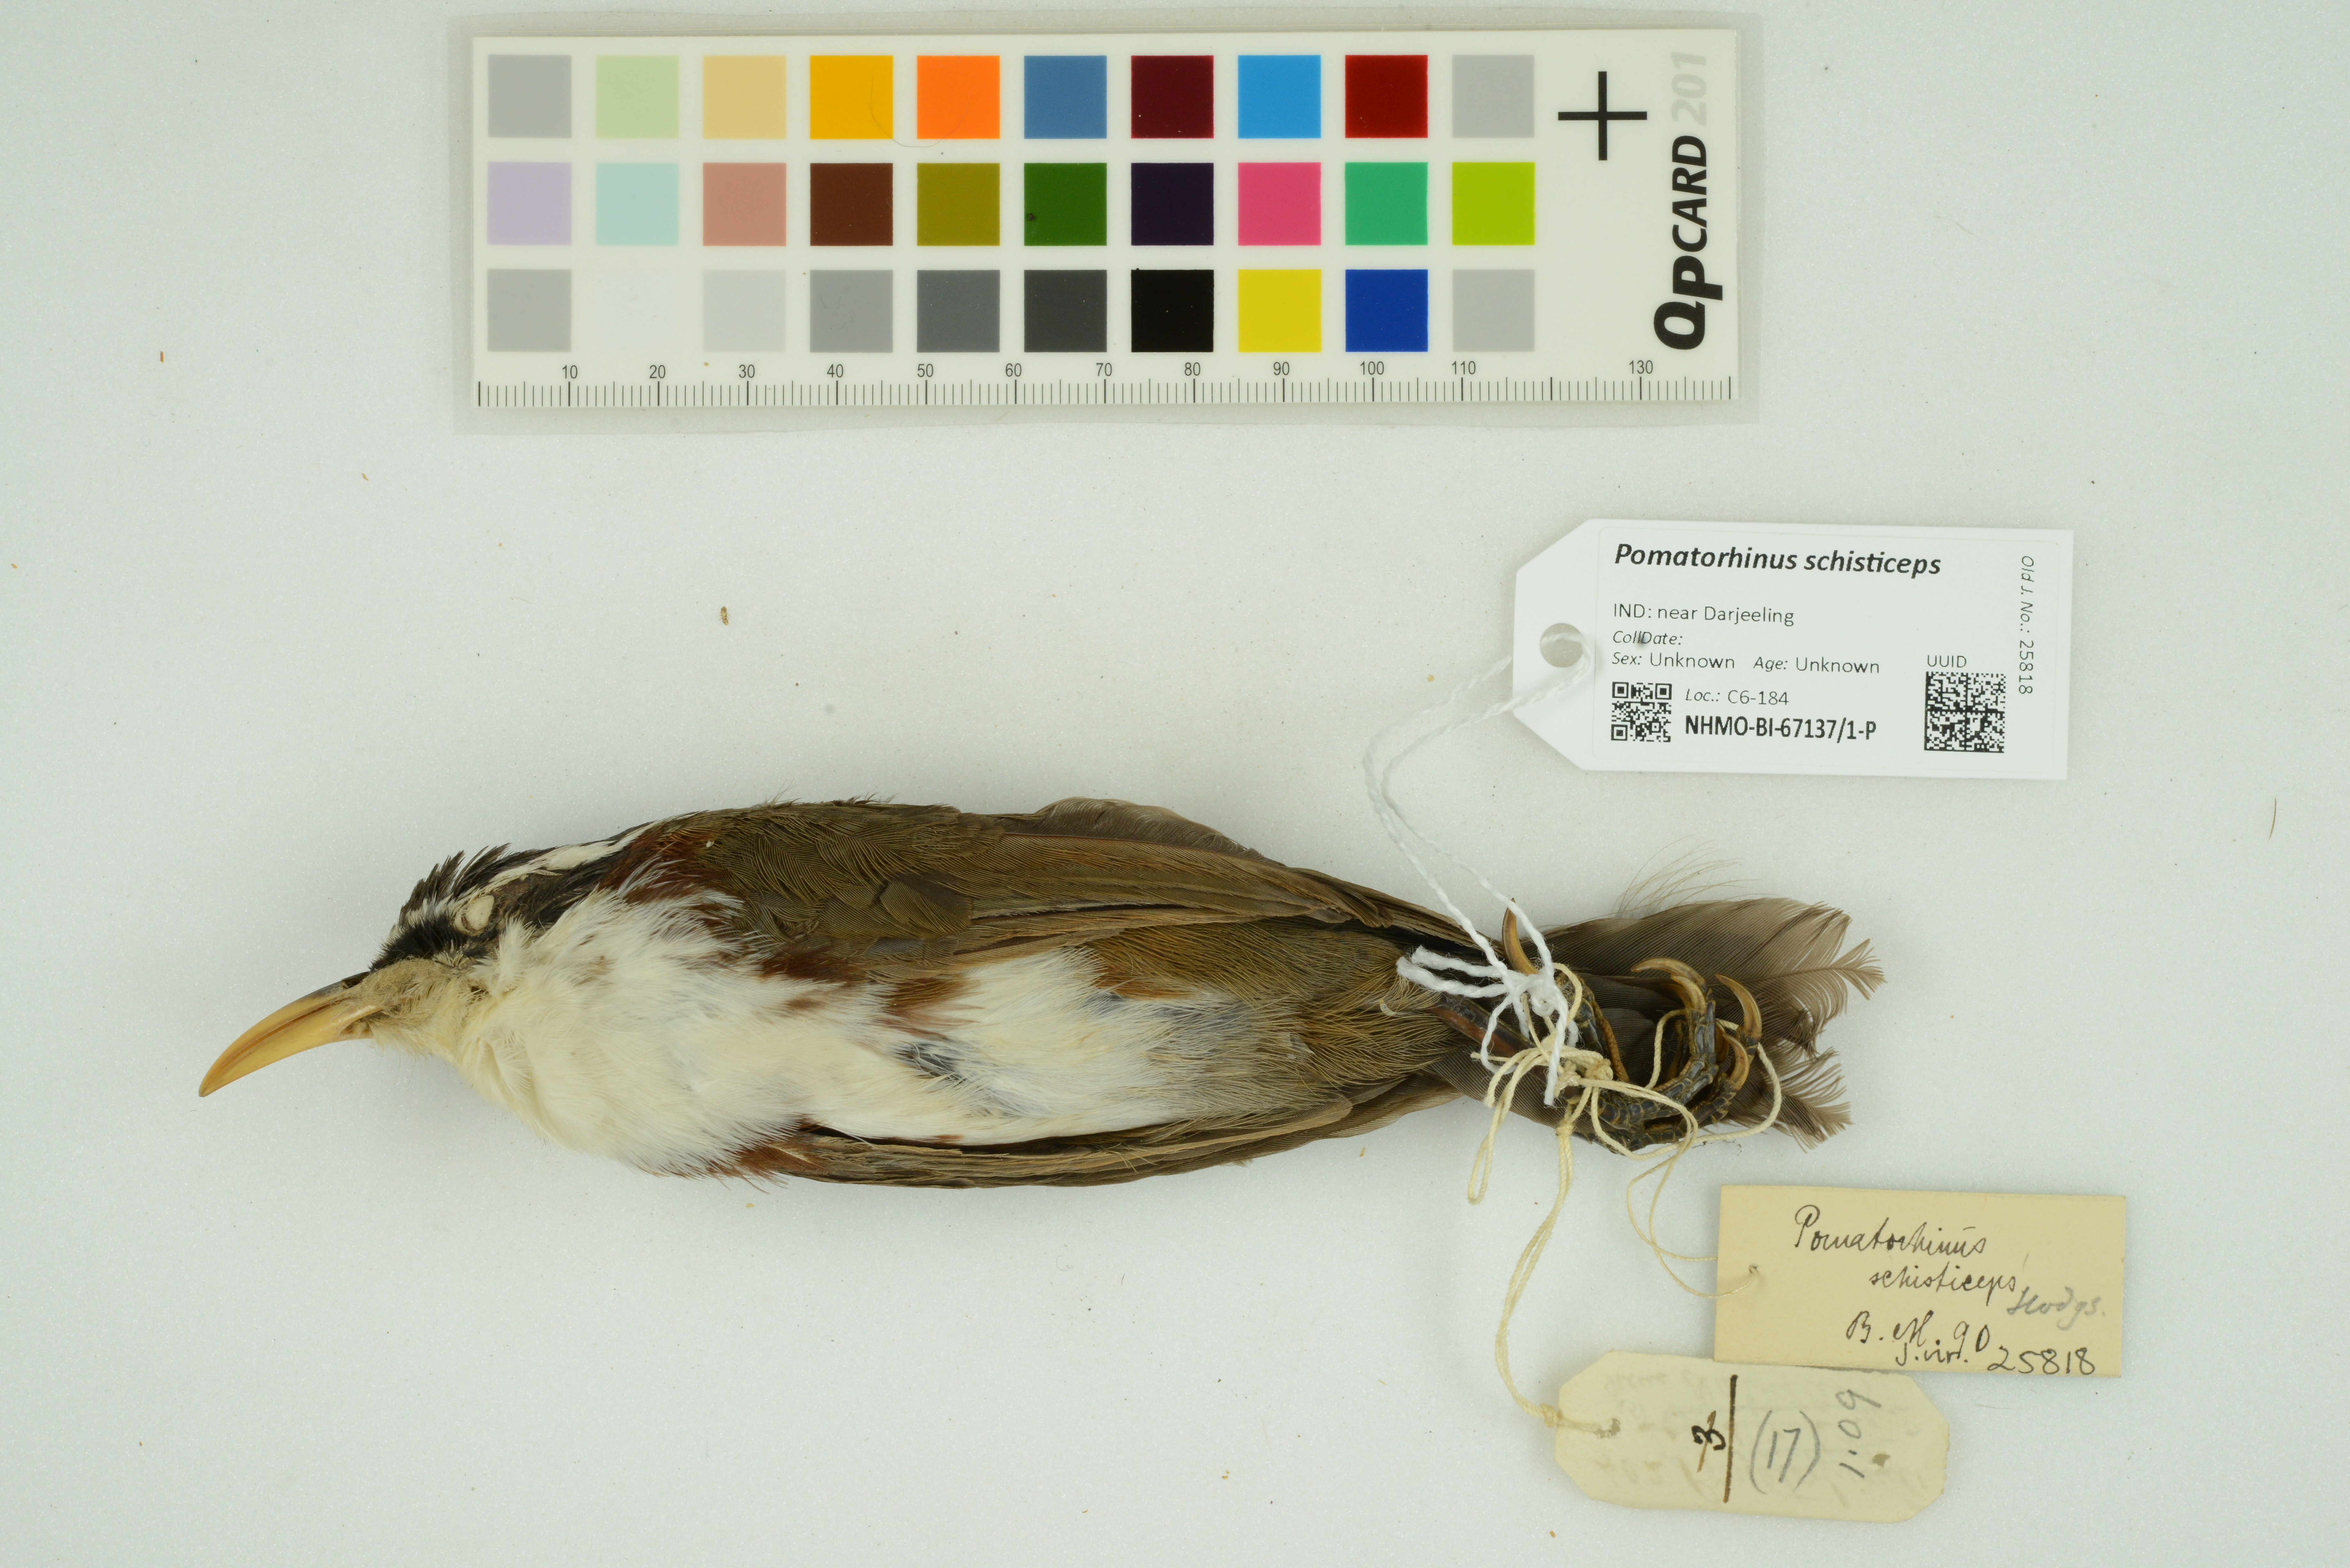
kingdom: Animalia
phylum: Chordata
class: Aves
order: Passeriformes
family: Timaliidae
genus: Pomatorhinus
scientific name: Pomatorhinus schisticeps
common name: White-browed scimitar babbler
